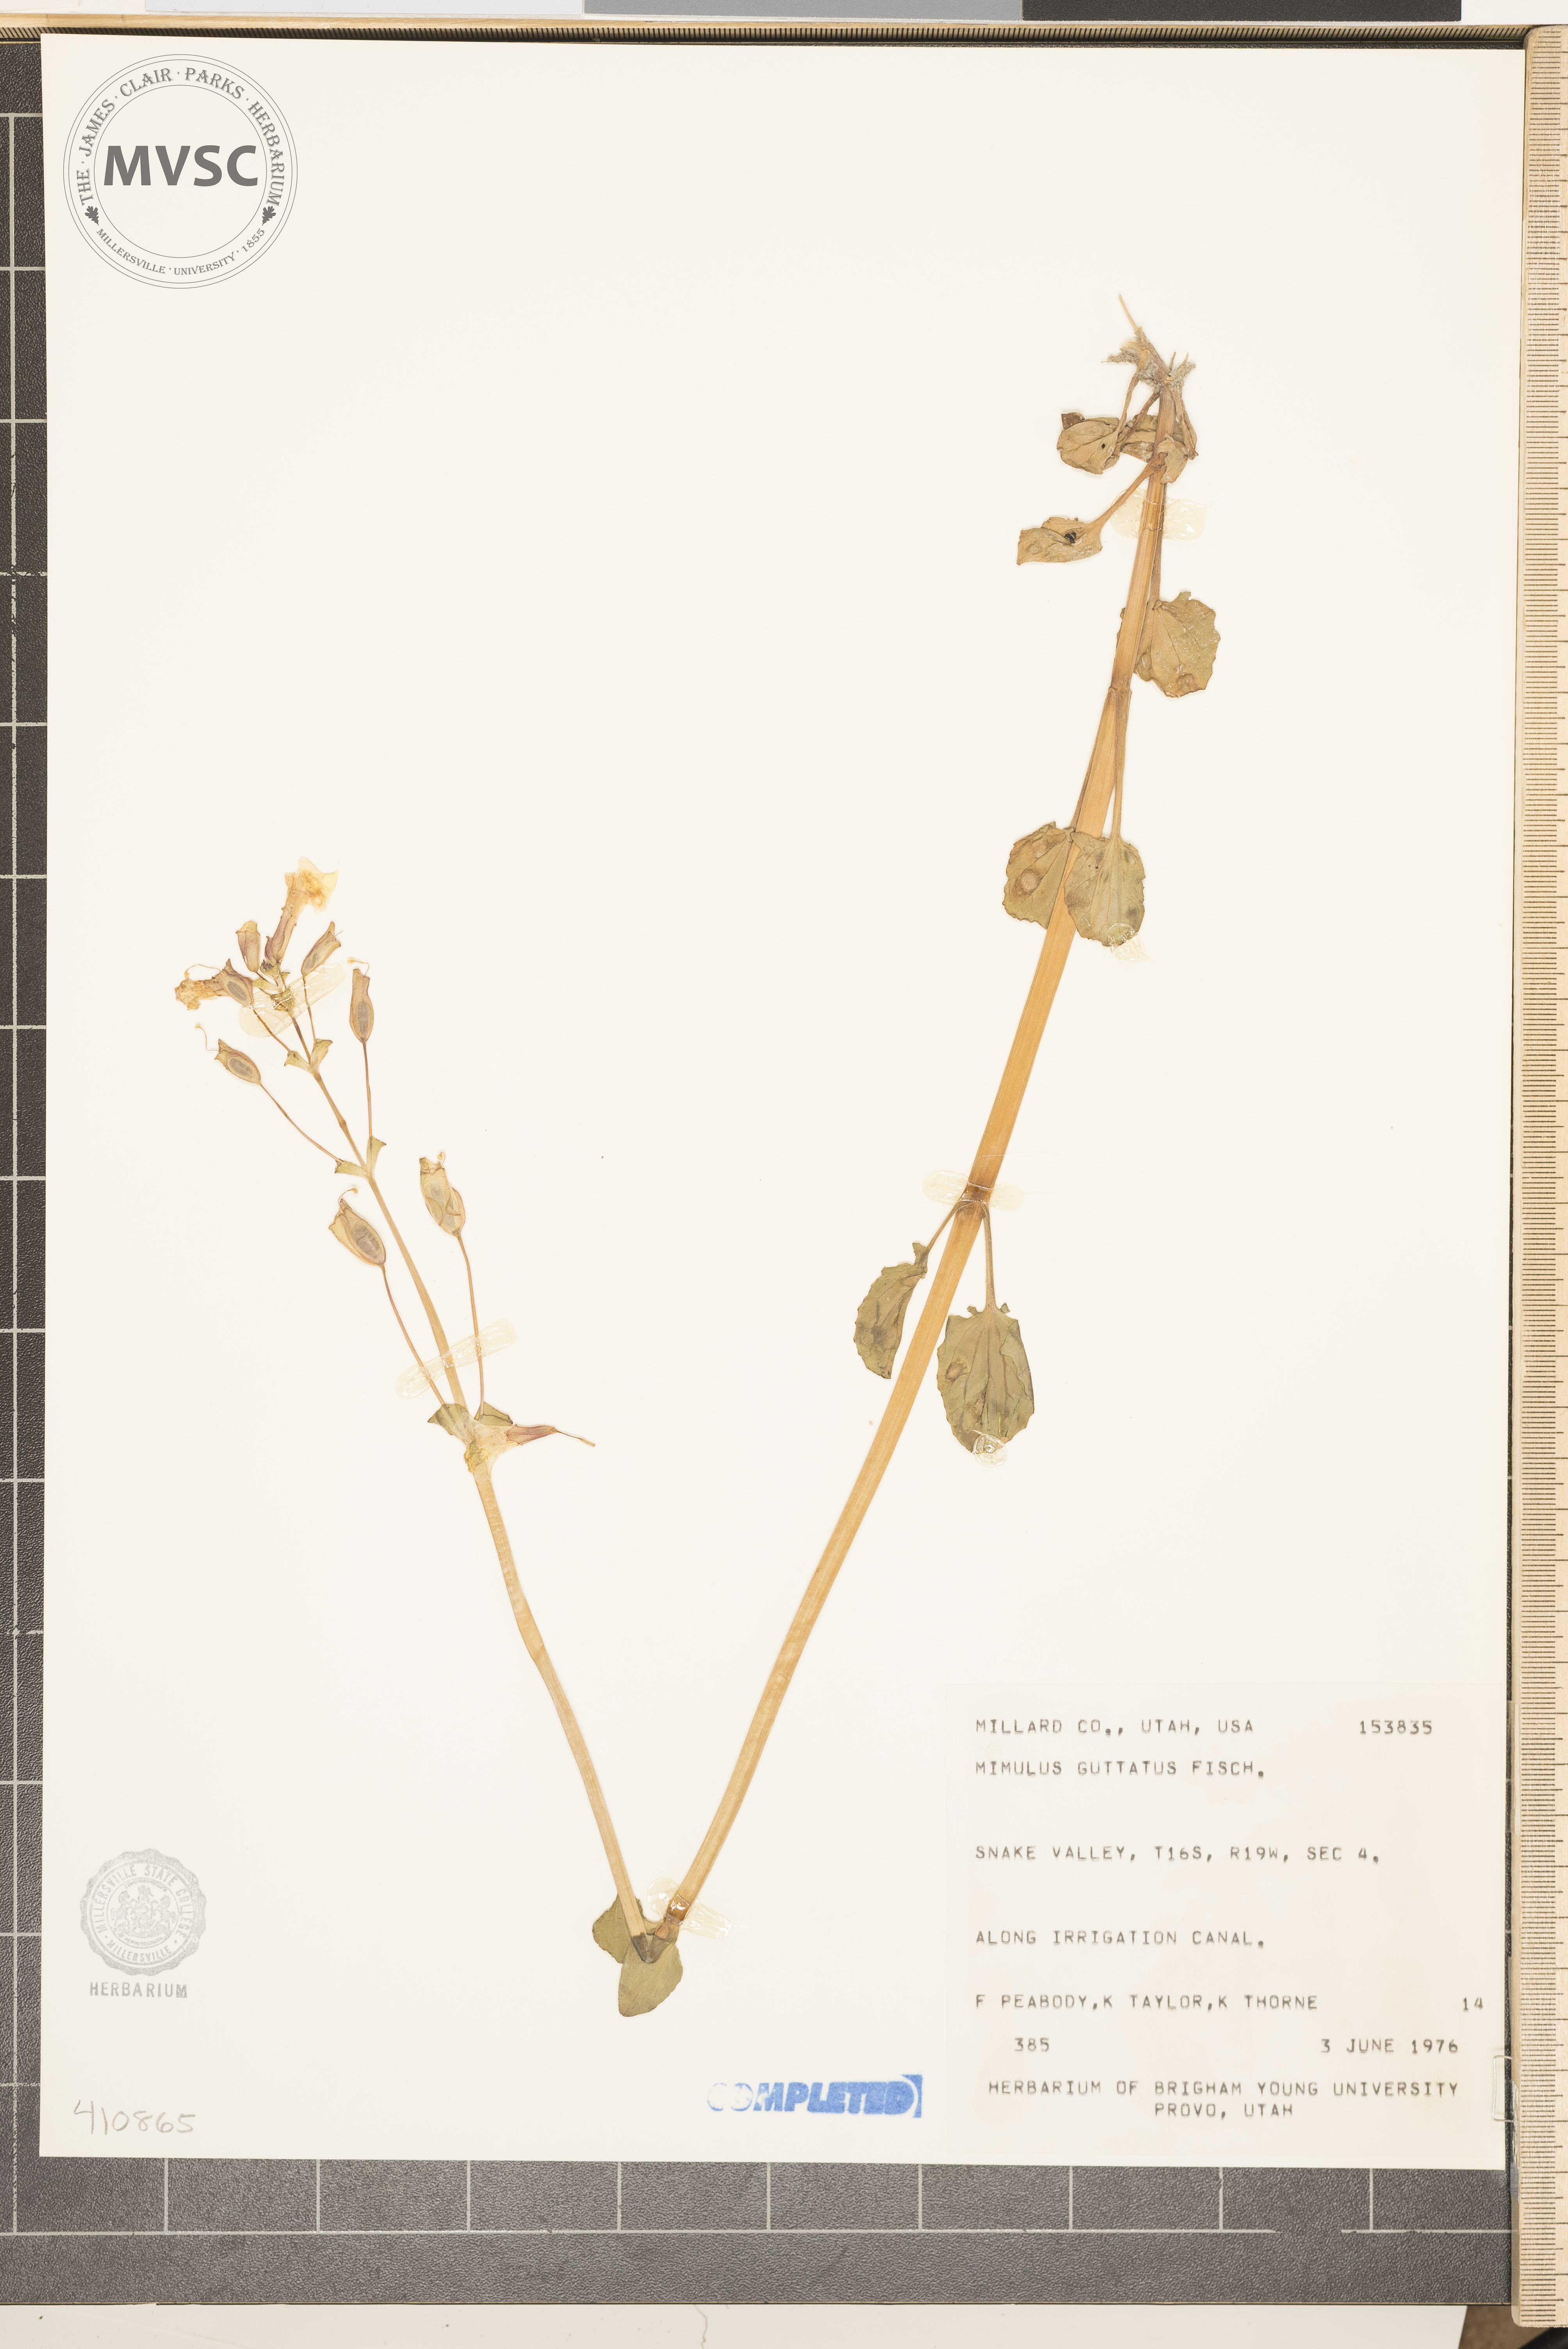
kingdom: Plantae
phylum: Tracheophyta
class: Magnoliopsida
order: Lamiales
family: Phrymaceae
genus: Erythranthe
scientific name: Erythranthe lutea
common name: Yellow monkey-flower
